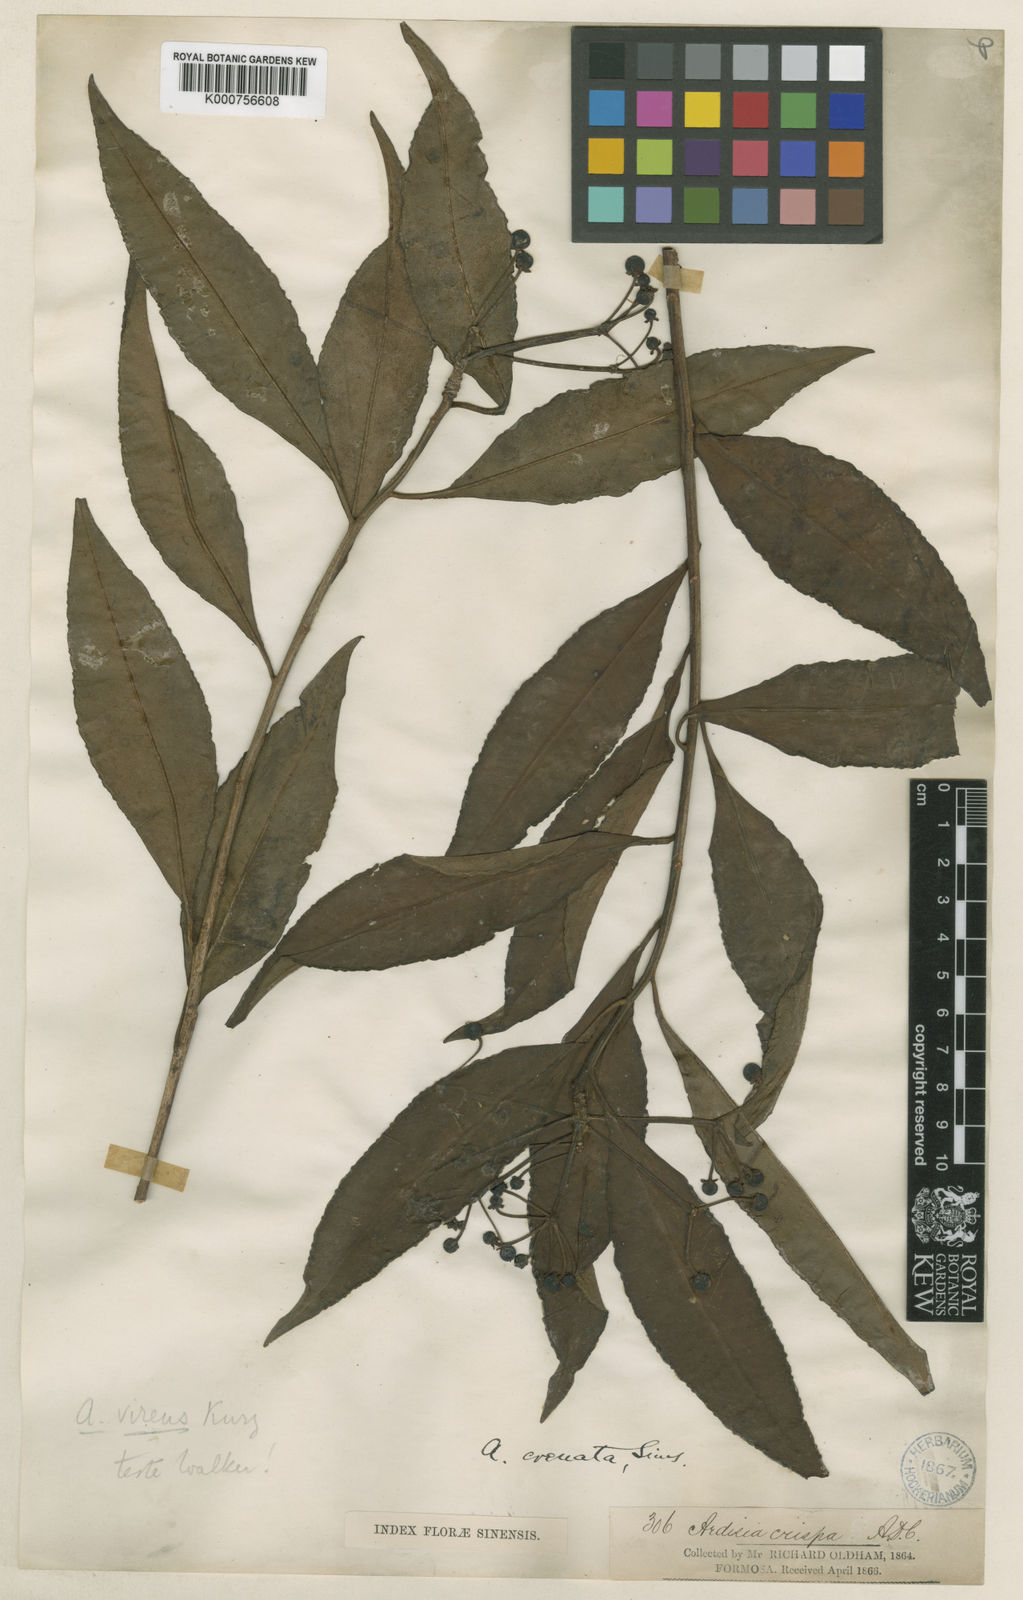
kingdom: Plantae
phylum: Tracheophyta
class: Magnoliopsida
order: Ericales
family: Primulaceae
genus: Ardisia
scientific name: Ardisia polysticta
